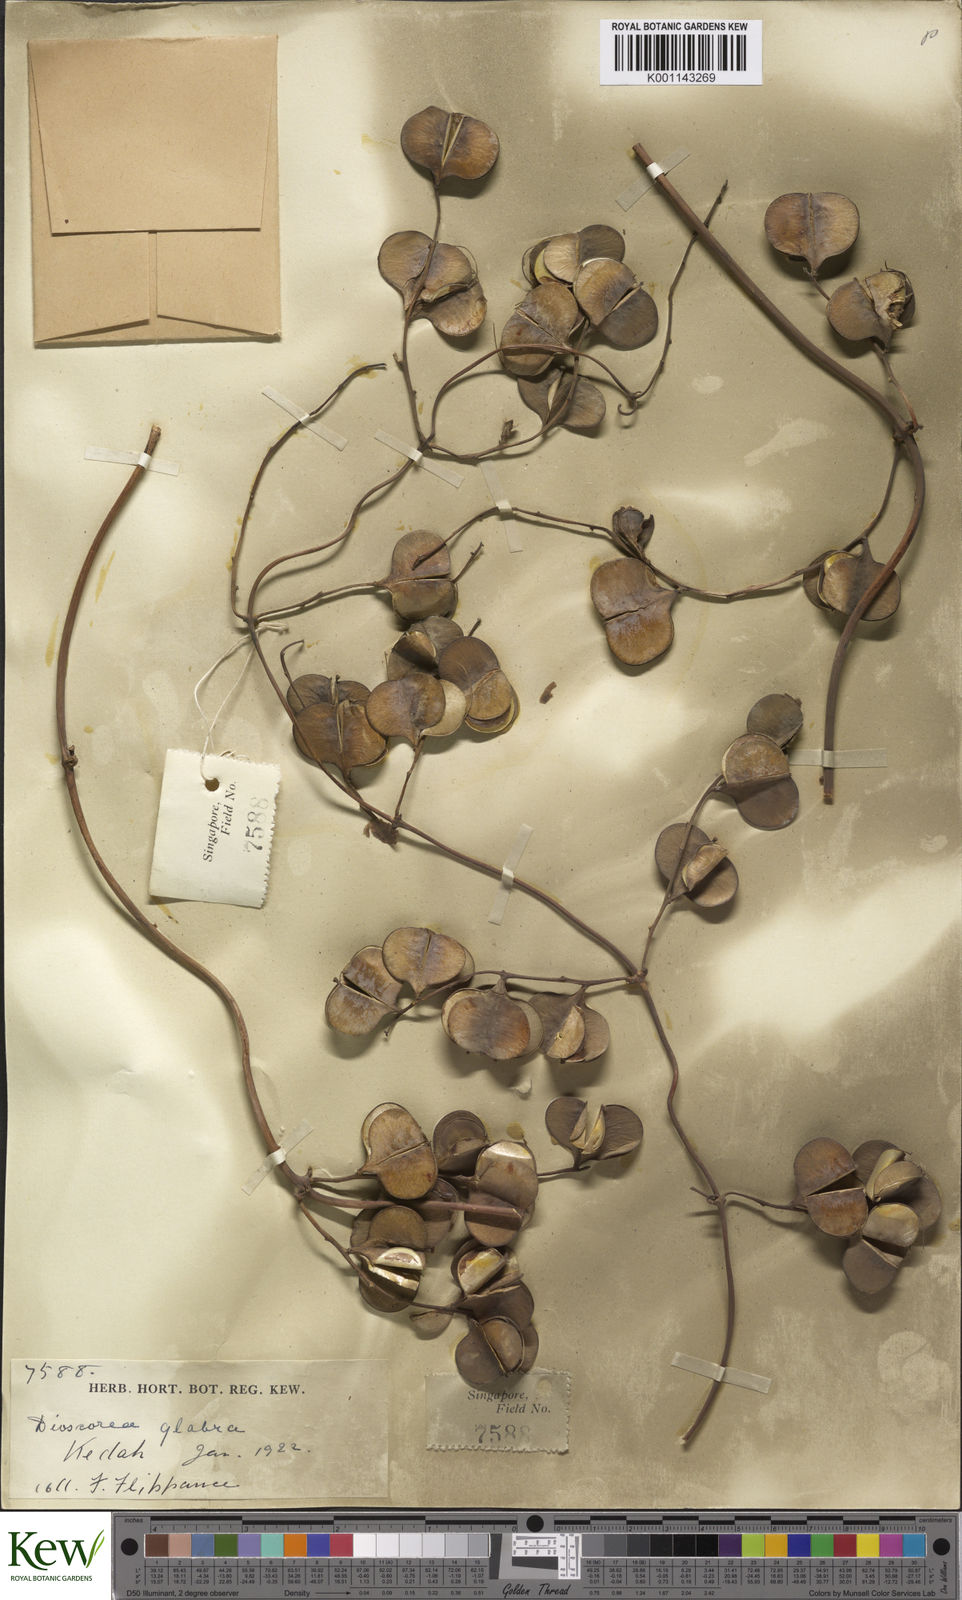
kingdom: Plantae
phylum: Tracheophyta
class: Liliopsida
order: Dioscoreales
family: Dioscoreaceae
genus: Dioscorea
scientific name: Dioscorea glabra
